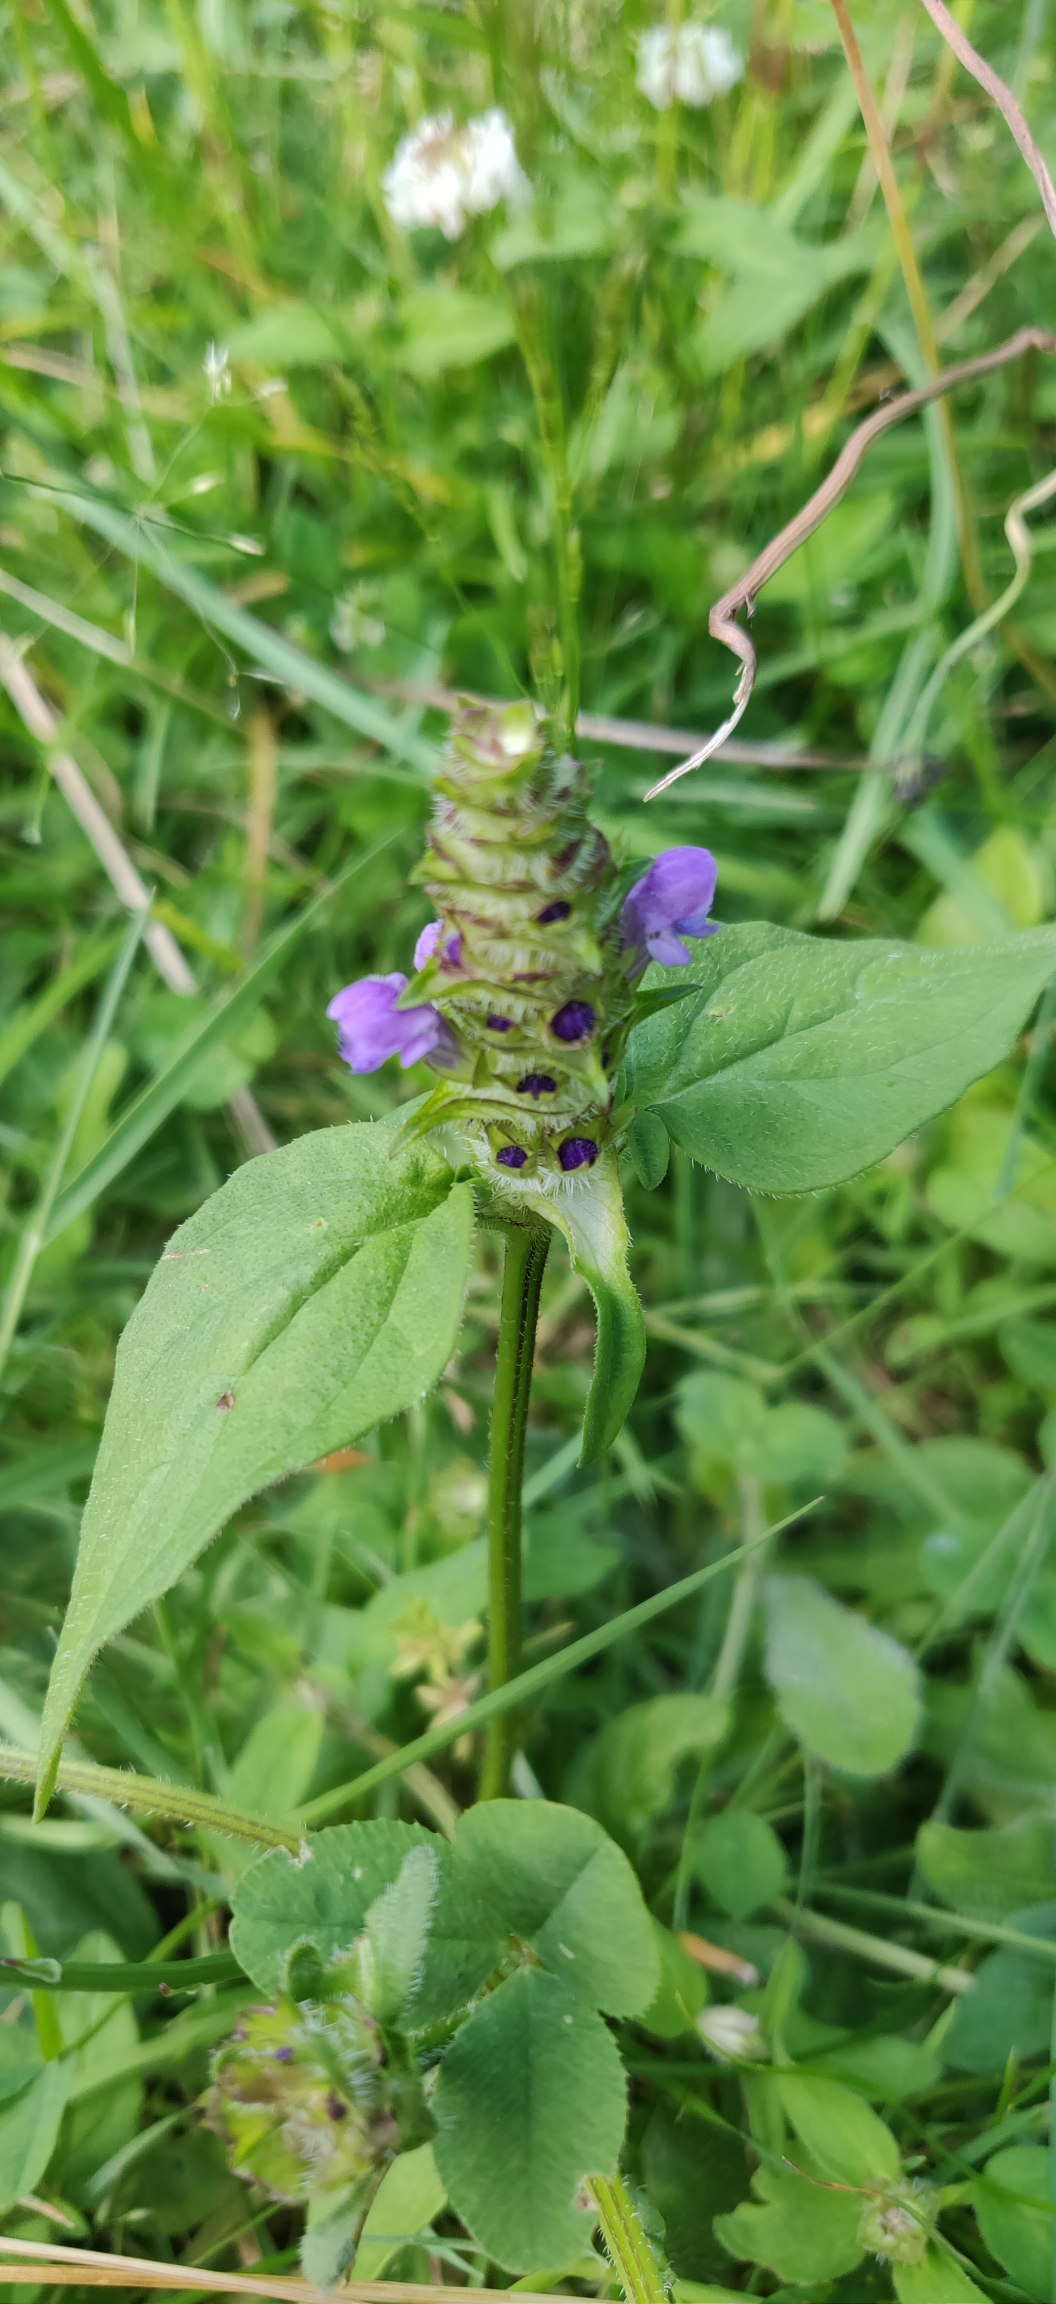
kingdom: Plantae
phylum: Tracheophyta
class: Magnoliopsida
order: Lamiales
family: Lamiaceae
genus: Prunella
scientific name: Prunella vulgaris
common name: Almindelig brunelle
